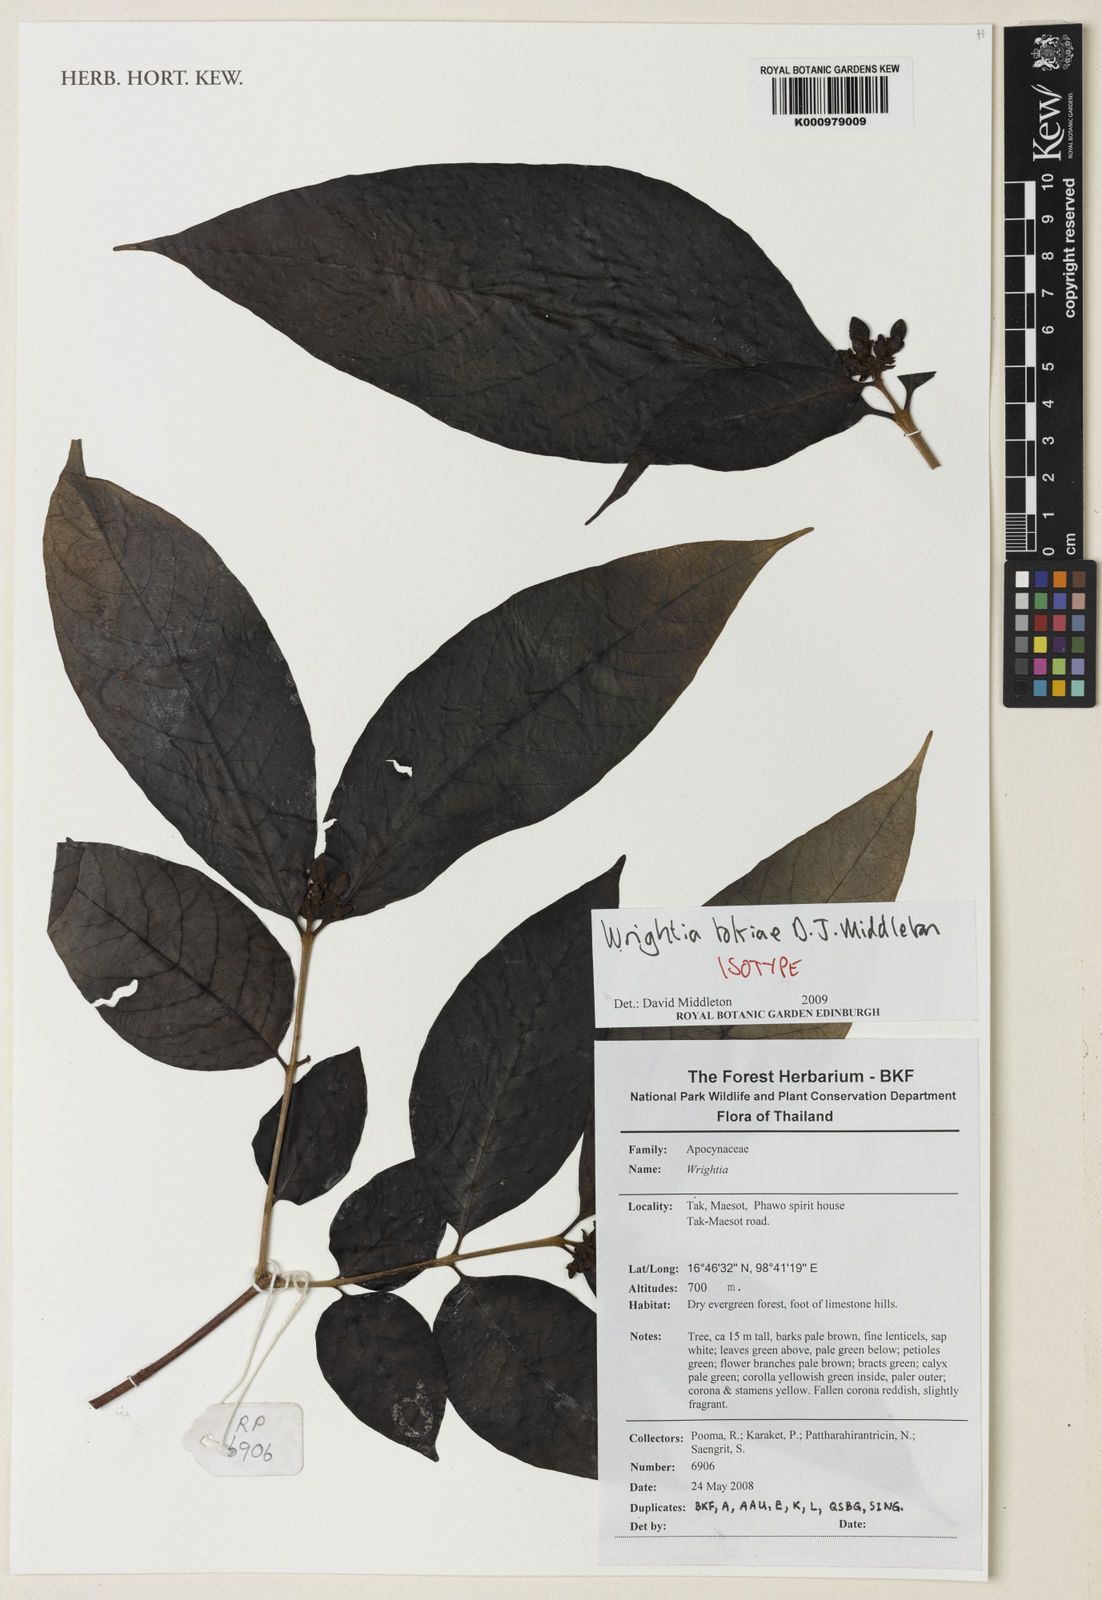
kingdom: Plantae
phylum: Tracheophyta
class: Magnoliopsida
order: Gentianales
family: Apocynaceae
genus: Wrightia
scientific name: Wrightia tokiae
